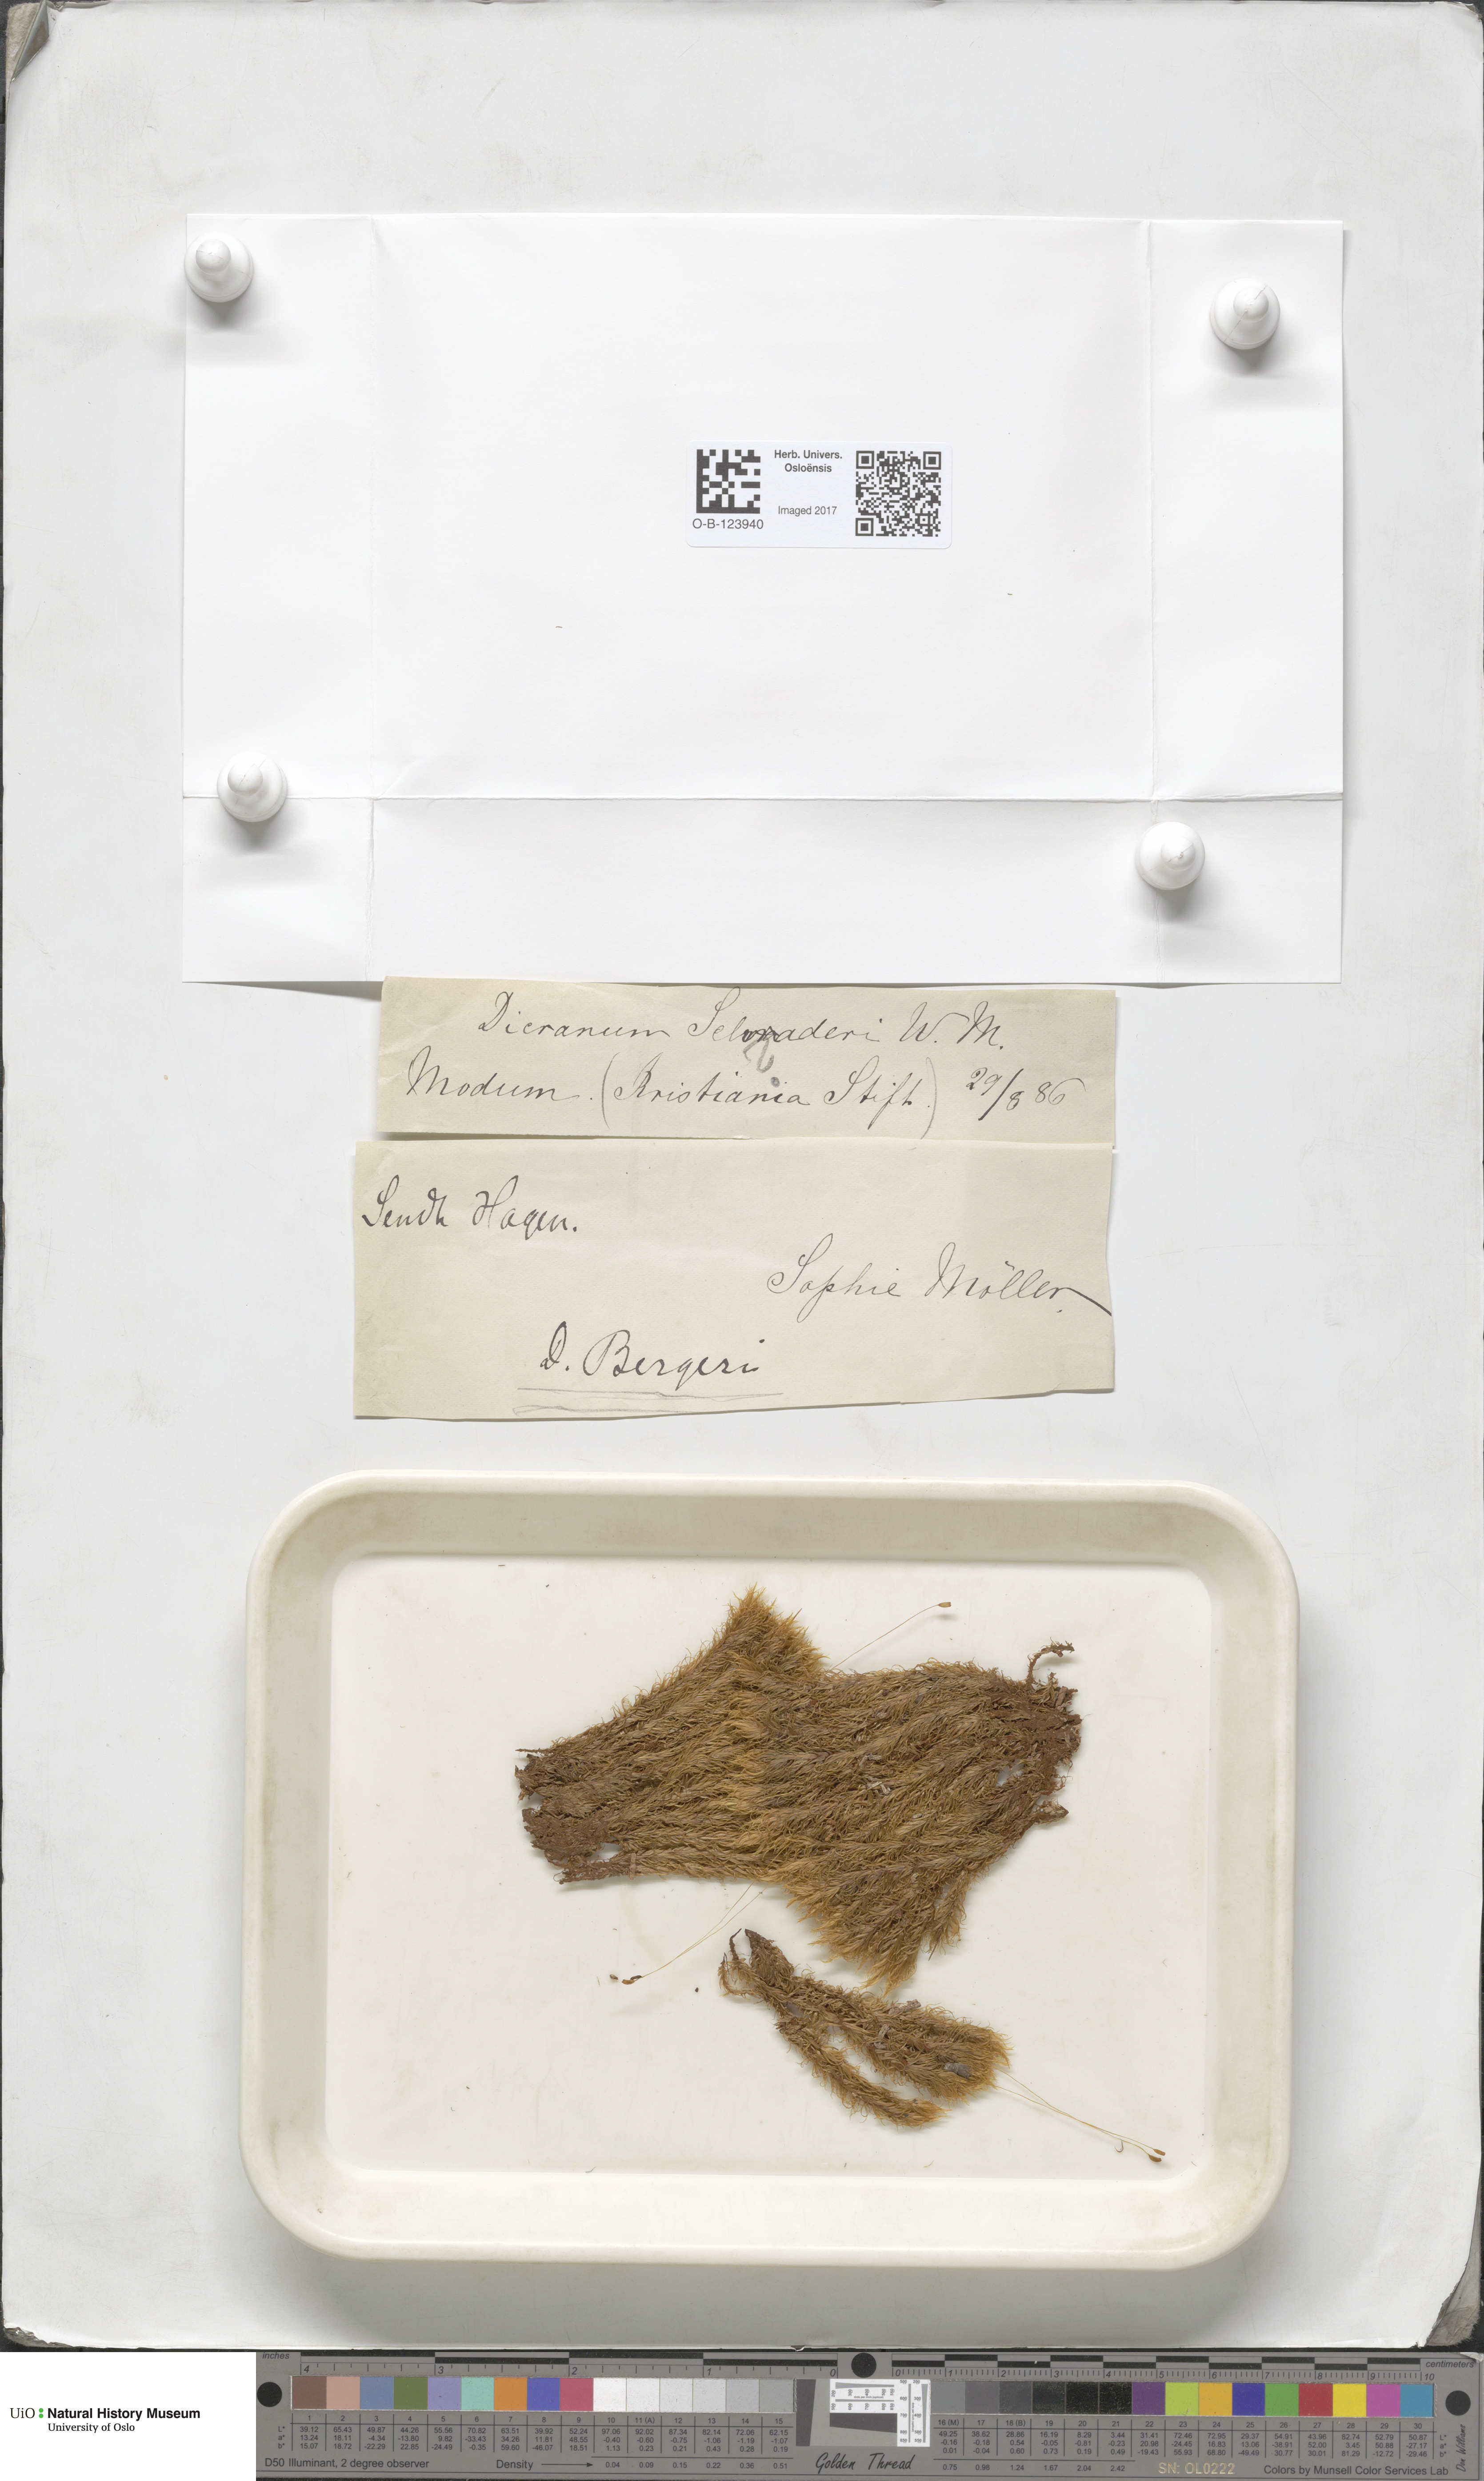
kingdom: Plantae
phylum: Bryophyta
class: Bryopsida
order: Dicranales
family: Dicranaceae
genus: Dicranum
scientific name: Dicranum undulatum
